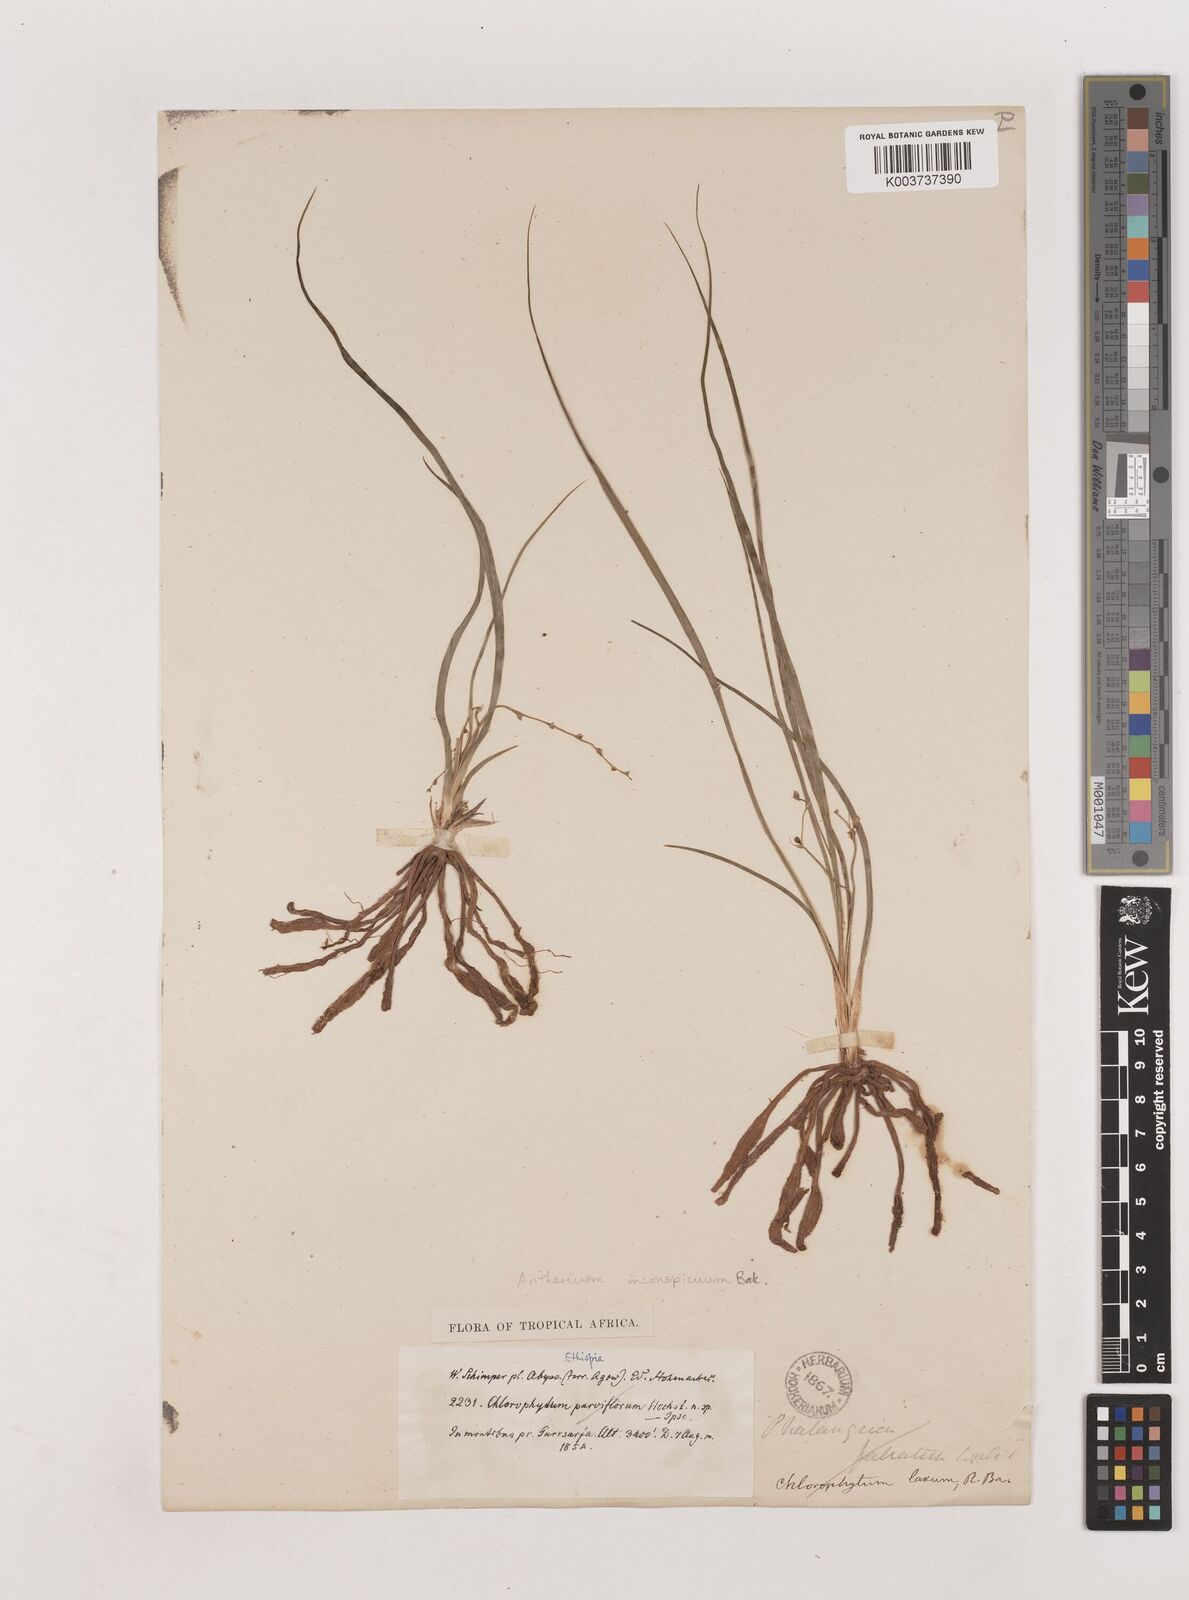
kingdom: Plantae
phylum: Tracheophyta
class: Liliopsida
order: Asparagales
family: Asparagaceae
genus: Chlorophytum
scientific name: Chlorophytum inconspicuum
